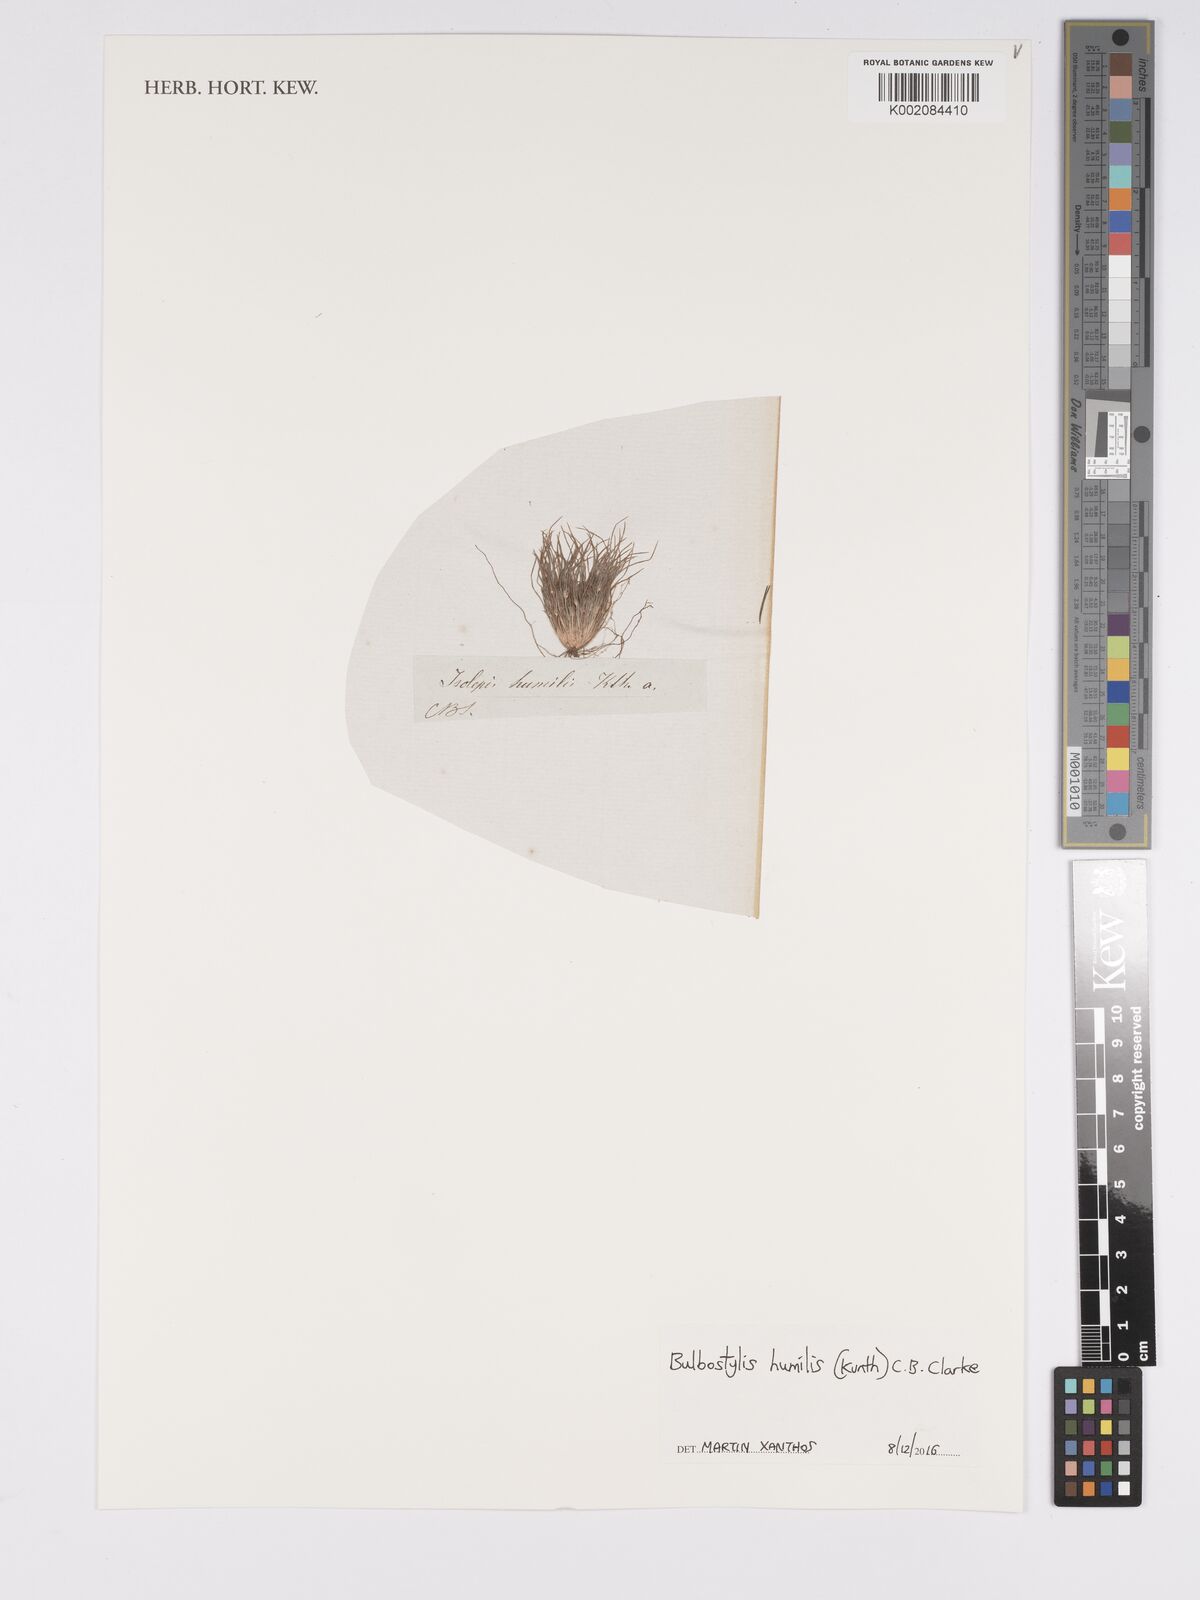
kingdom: Plantae
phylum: Tracheophyta
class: Liliopsida
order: Poales
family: Cyperaceae
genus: Bulbostylis
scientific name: Bulbostylis humilis
